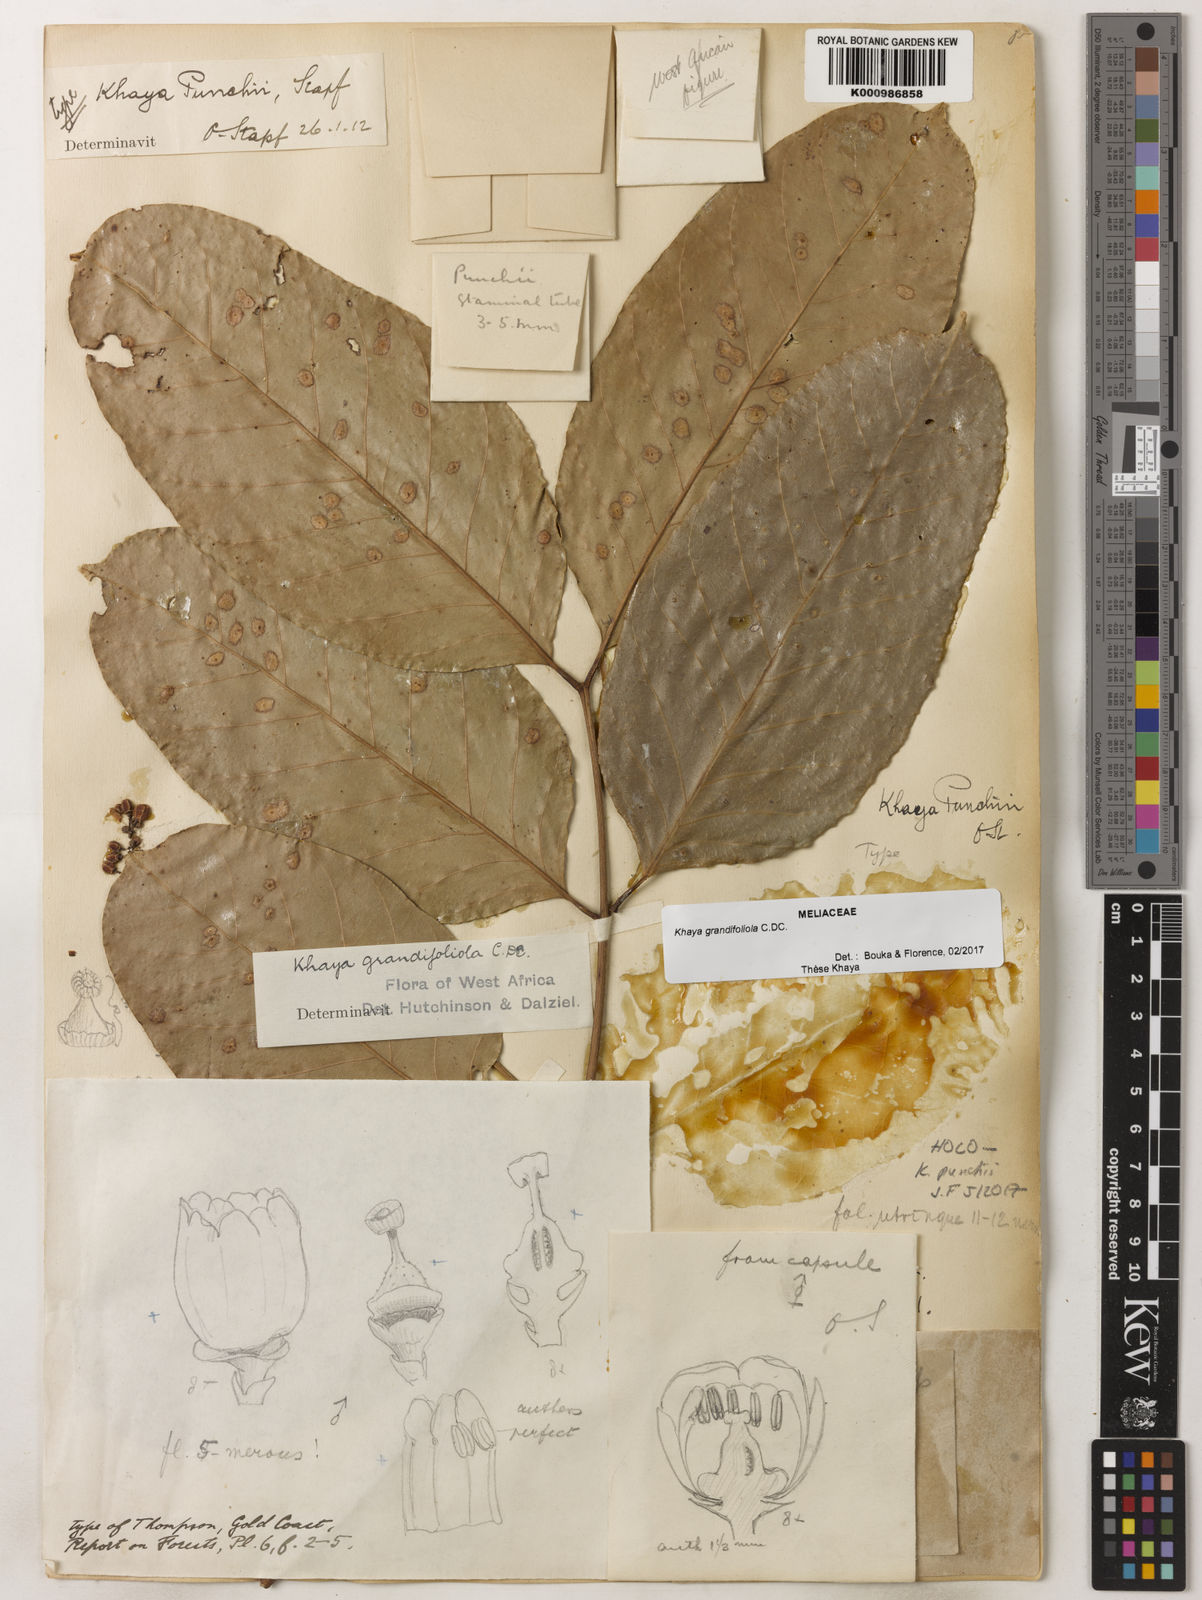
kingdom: Plantae
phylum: Tracheophyta
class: Magnoliopsida
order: Sapindales
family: Meliaceae
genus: Khaya
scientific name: Khaya
